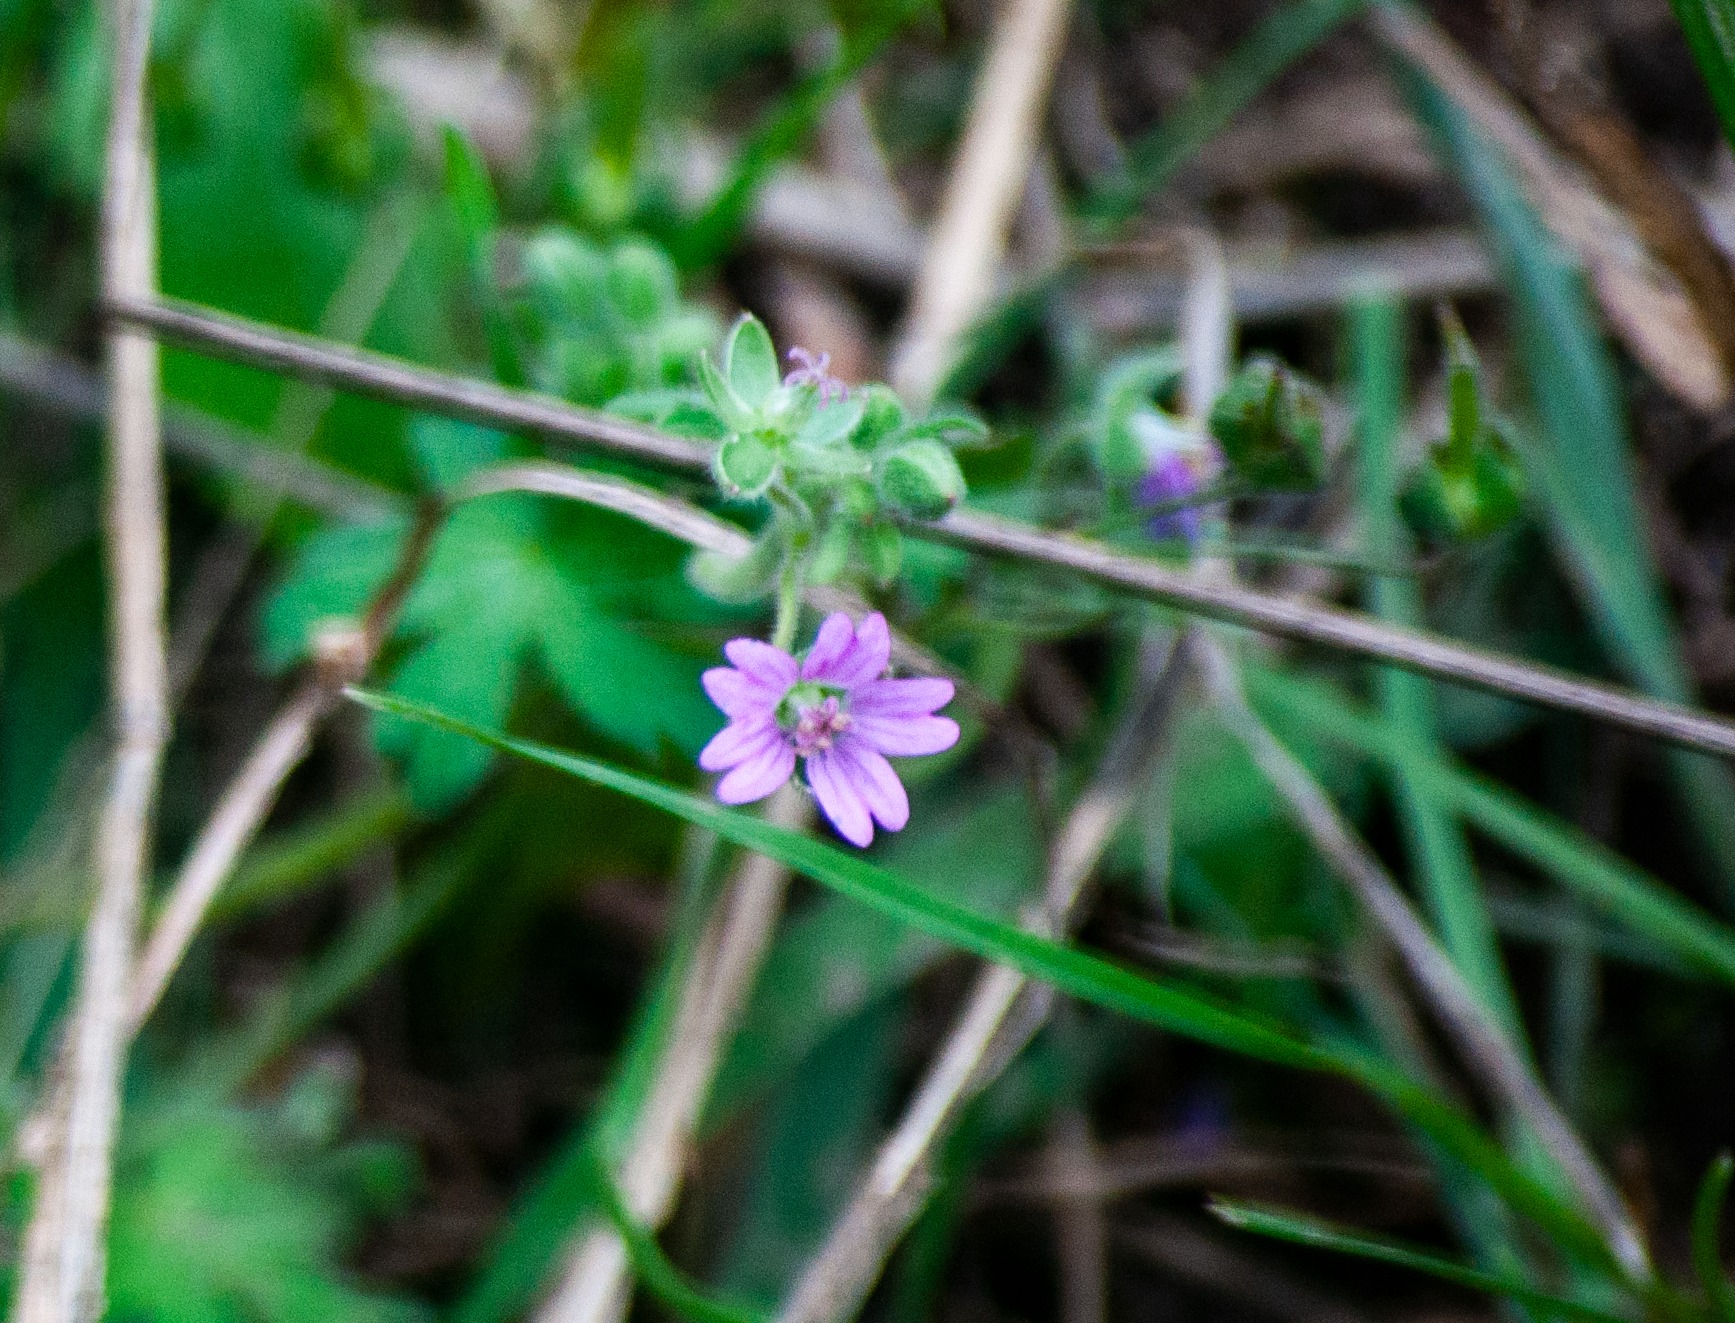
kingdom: Plantae
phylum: Tracheophyta
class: Magnoliopsida
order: Geraniales
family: Geraniaceae
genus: Geranium
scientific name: Geranium molle
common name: Blød storkenæb
